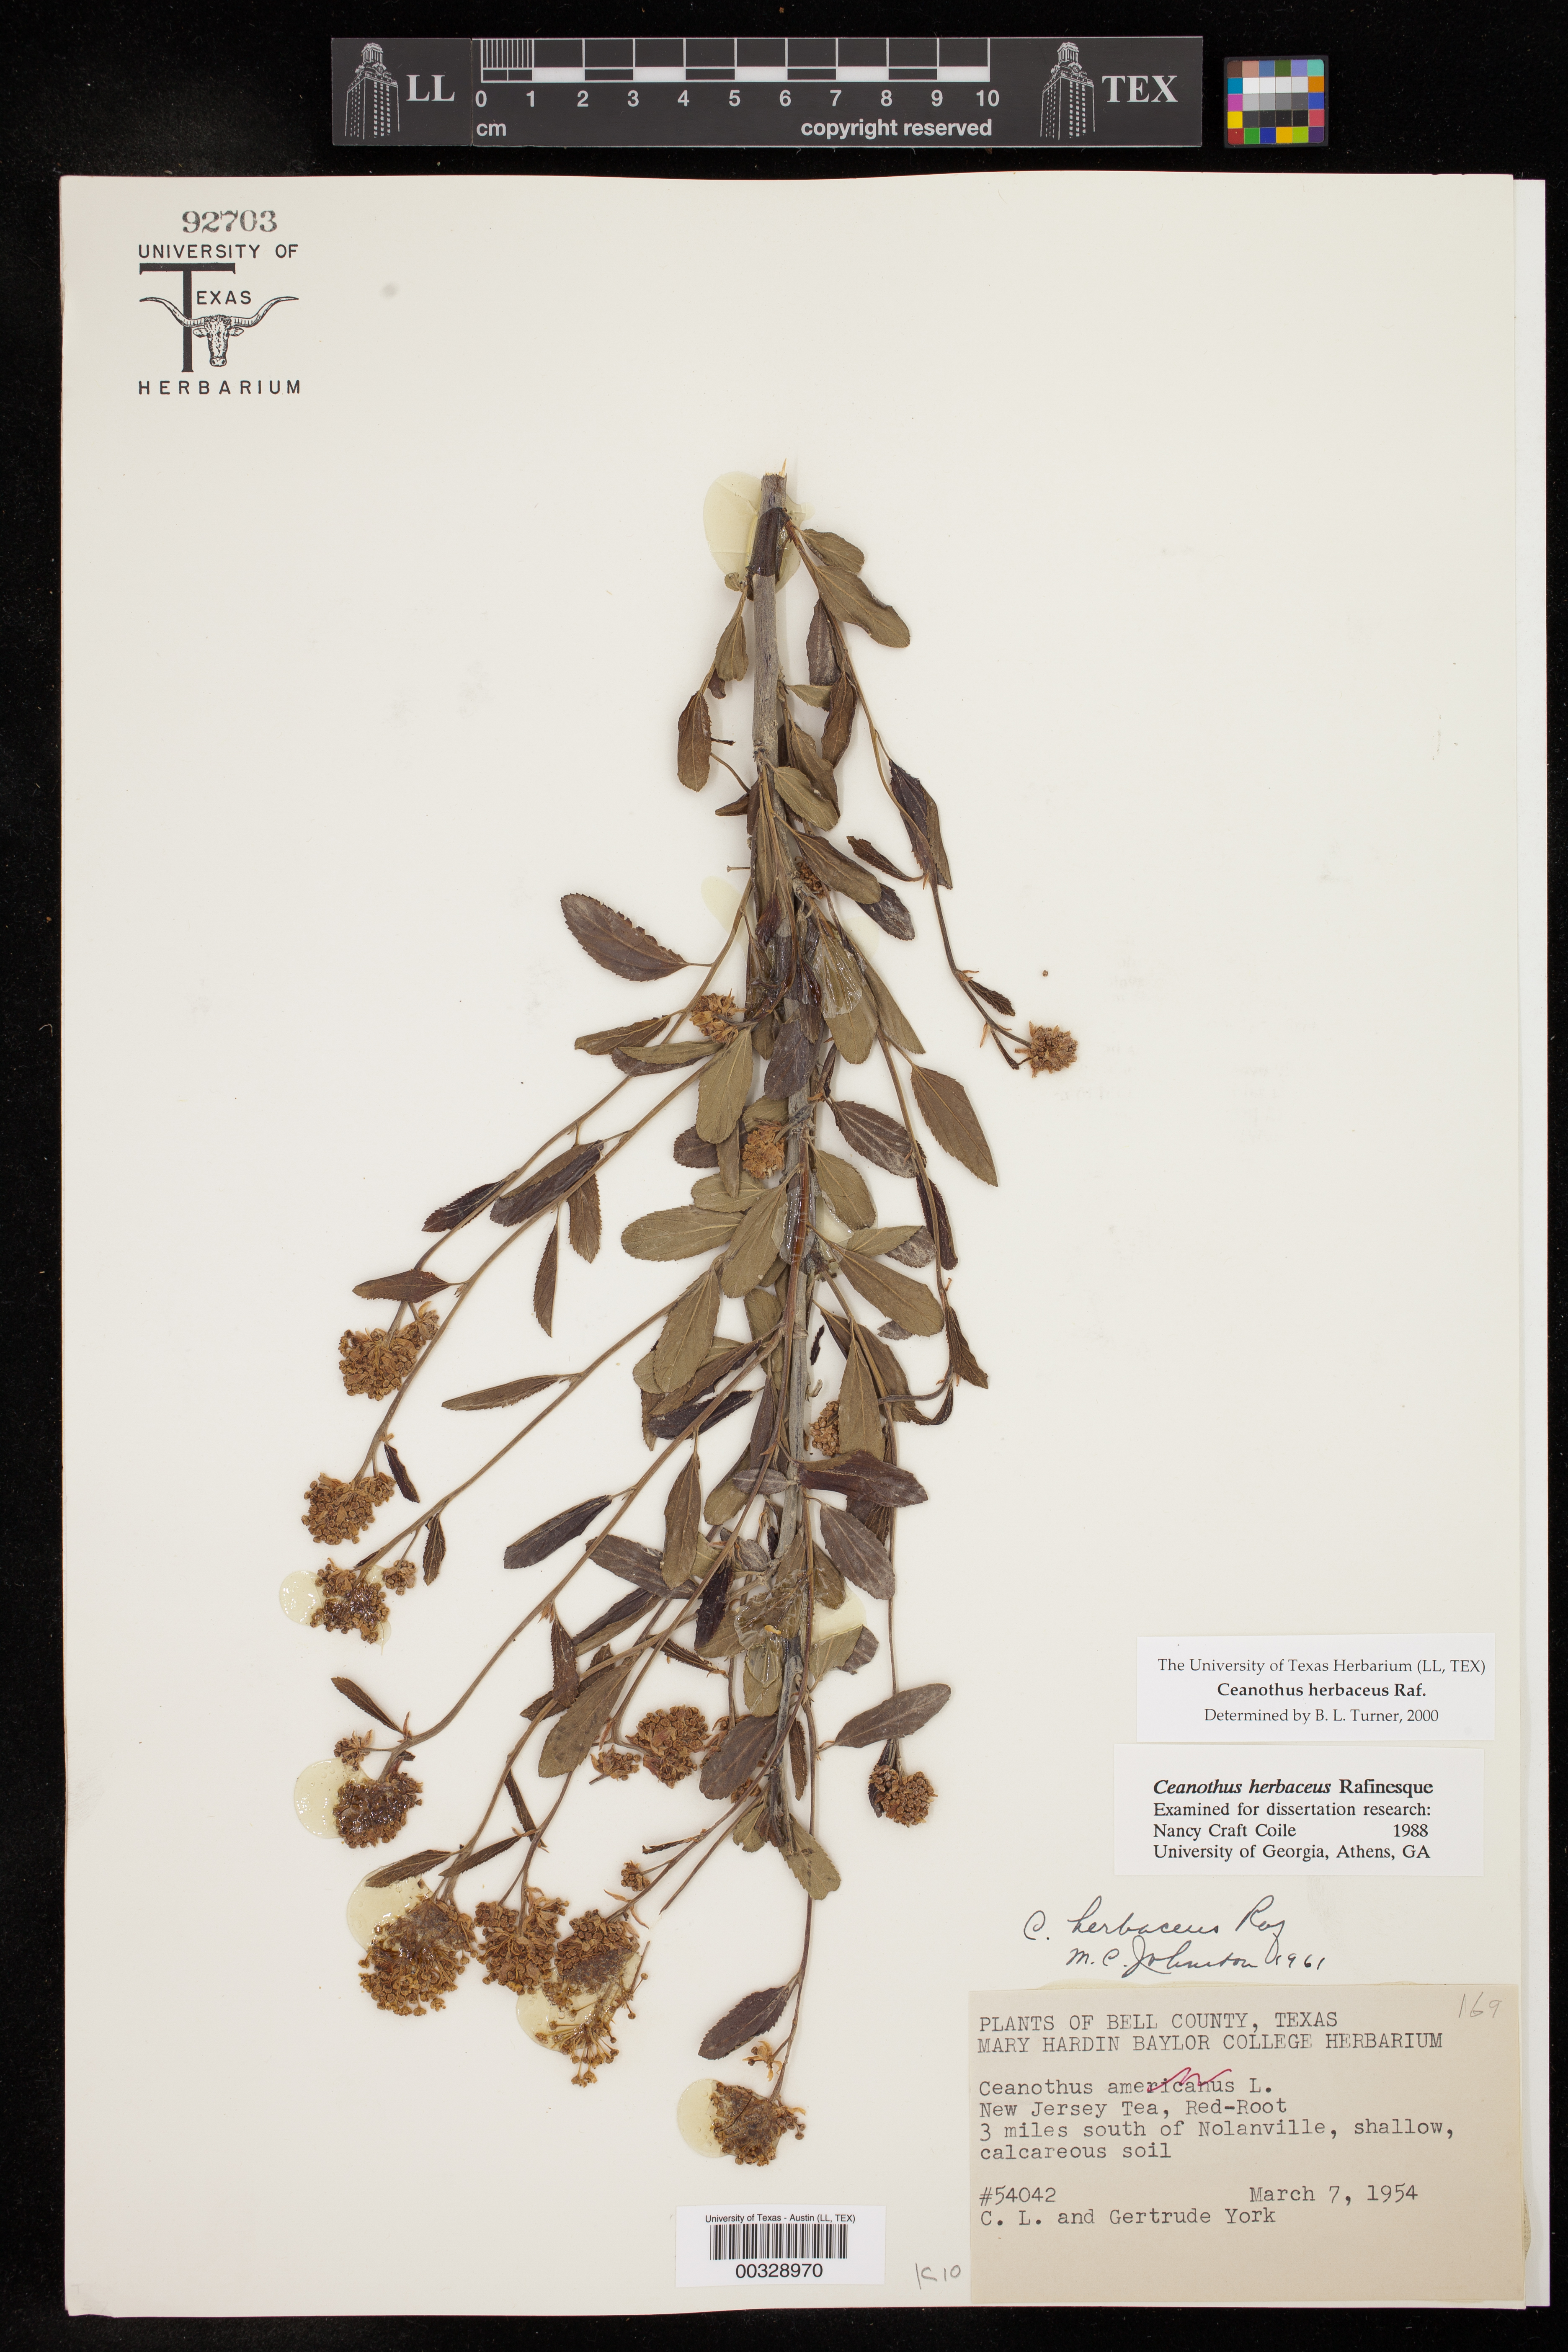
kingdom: Plantae
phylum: Tracheophyta
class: Magnoliopsida
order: Rosales
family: Rhamnaceae
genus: Ceanothus
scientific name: Ceanothus herbaceus
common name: Inland ceanothus
